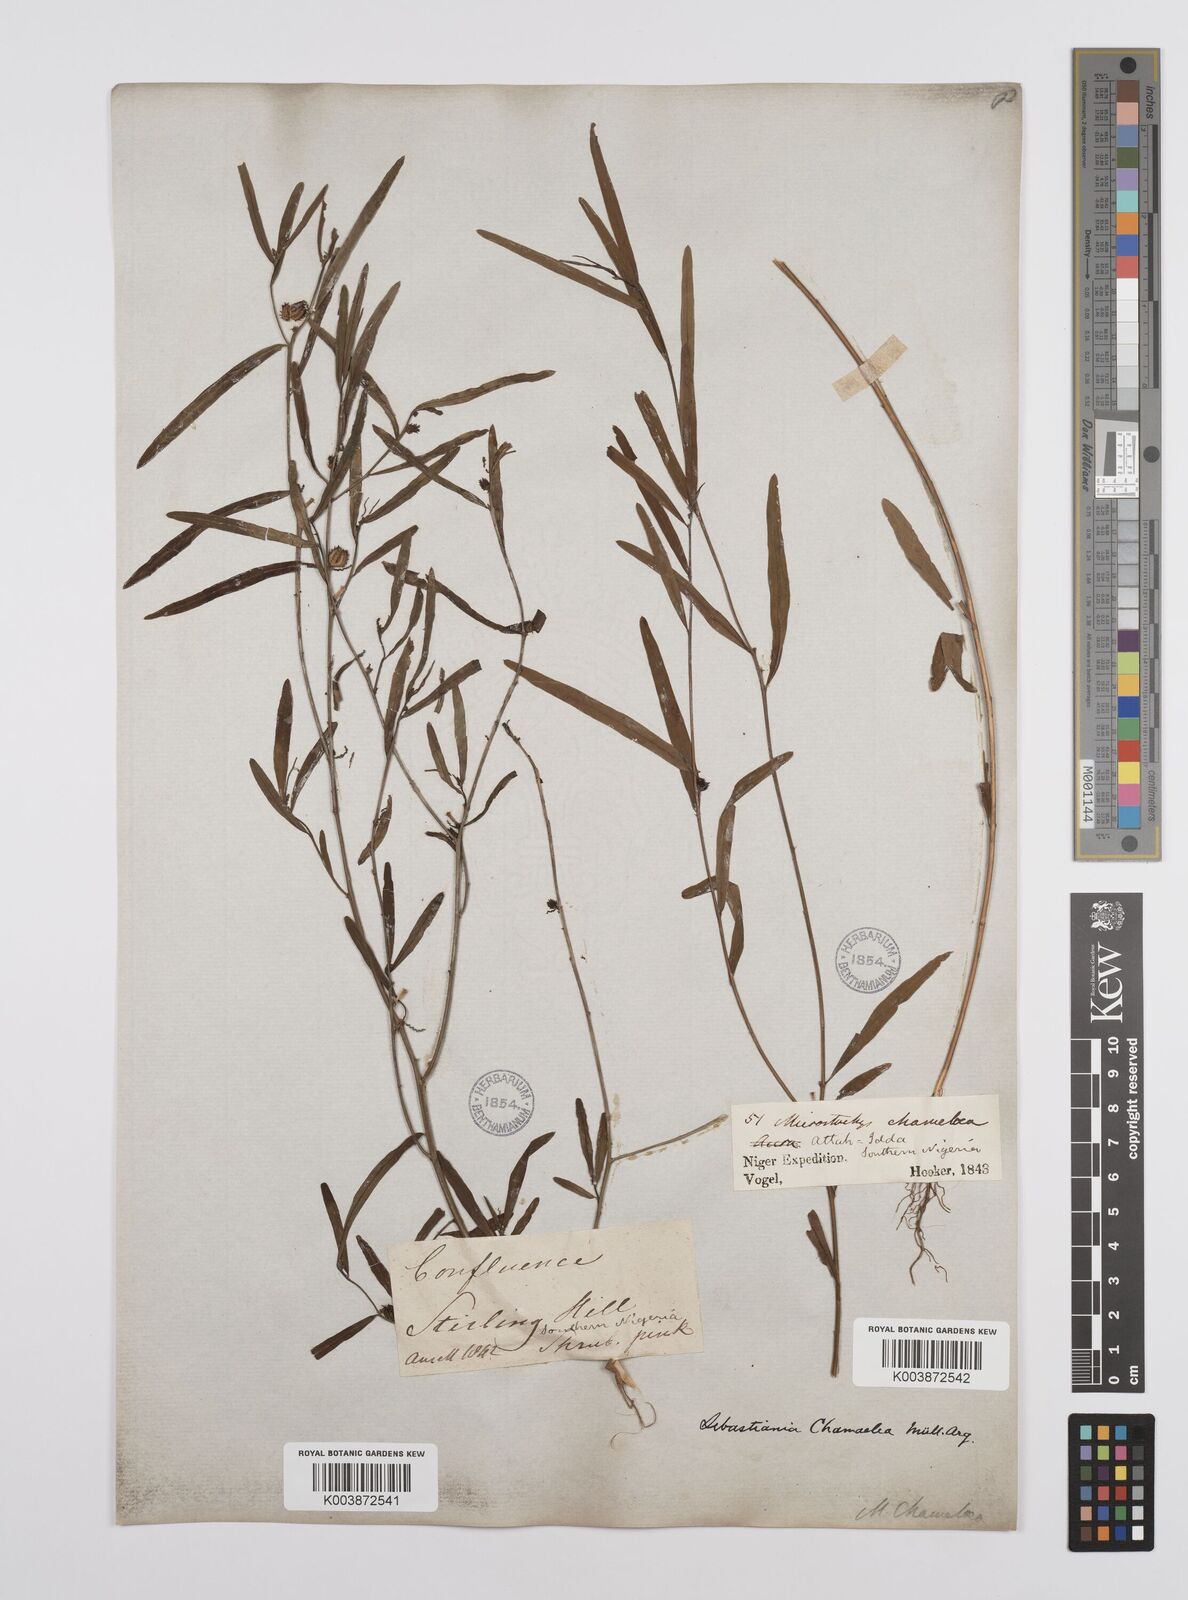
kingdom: Plantae
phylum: Tracheophyta
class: Magnoliopsida
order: Malpighiales
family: Euphorbiaceae
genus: Microstachys
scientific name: Microstachys chamaelea
